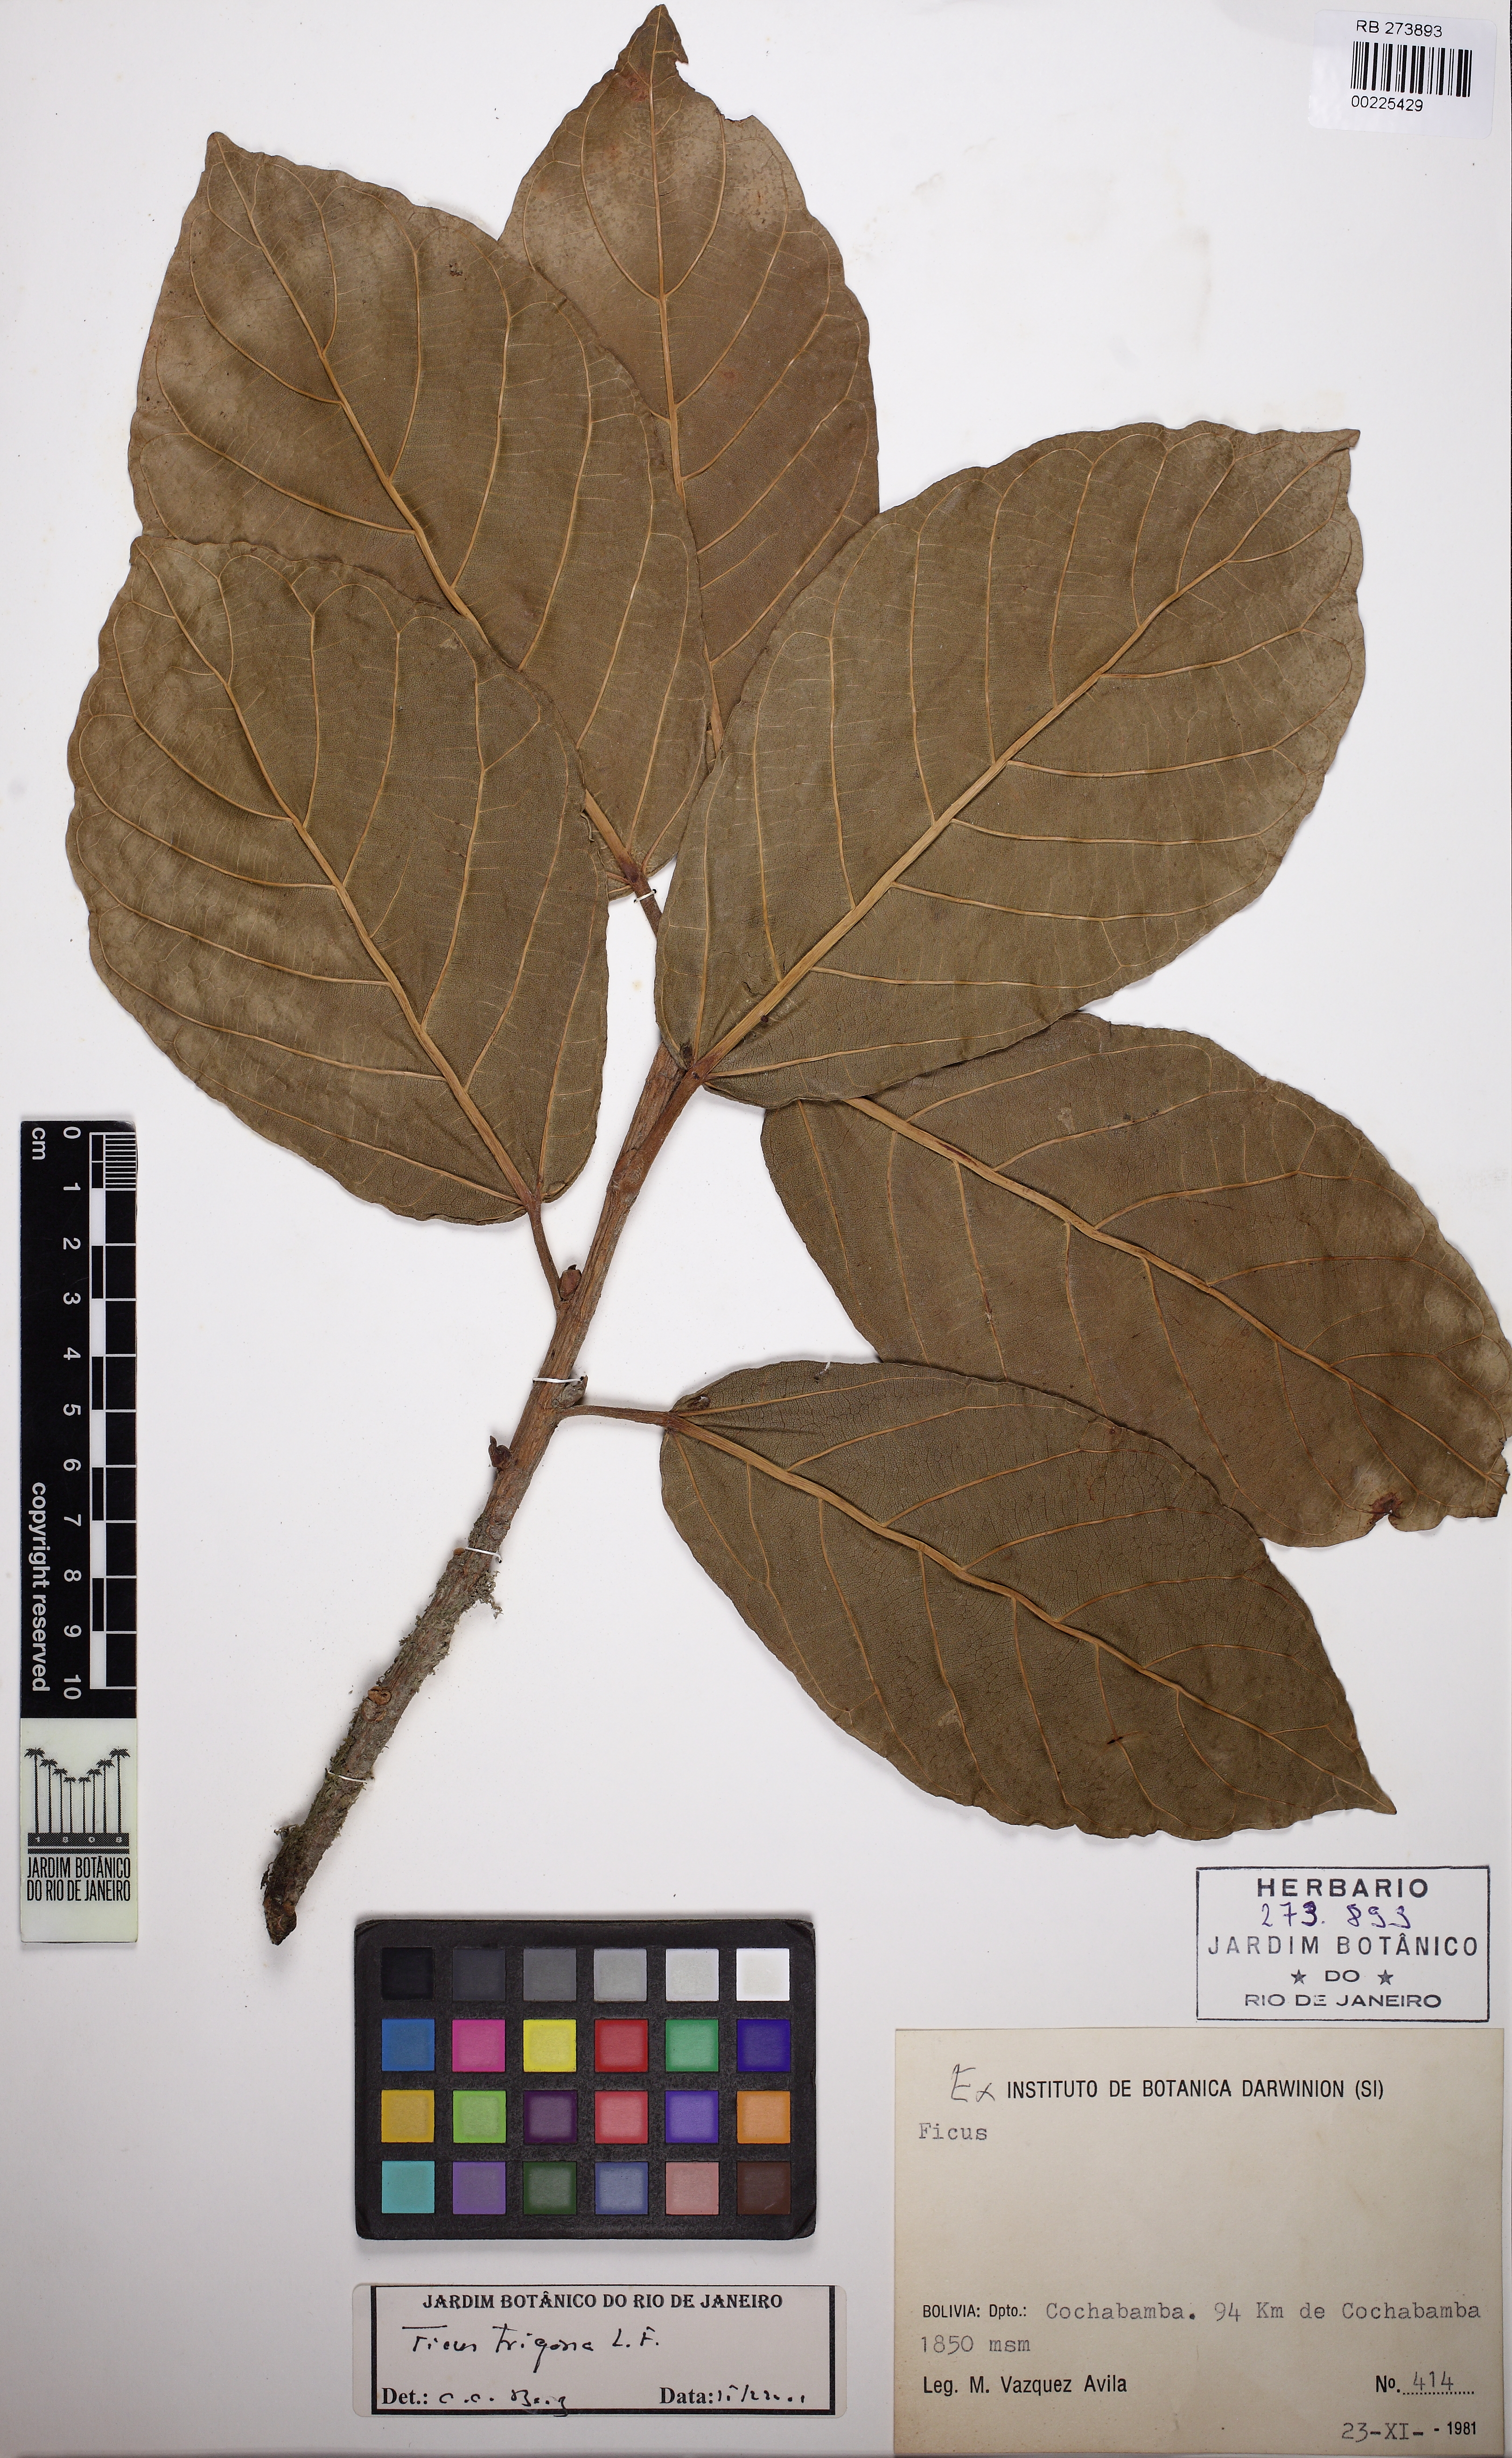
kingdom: Plantae
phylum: Tracheophyta
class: Magnoliopsida
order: Rosales
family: Moraceae
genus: Ficus
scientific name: Ficus trigona
